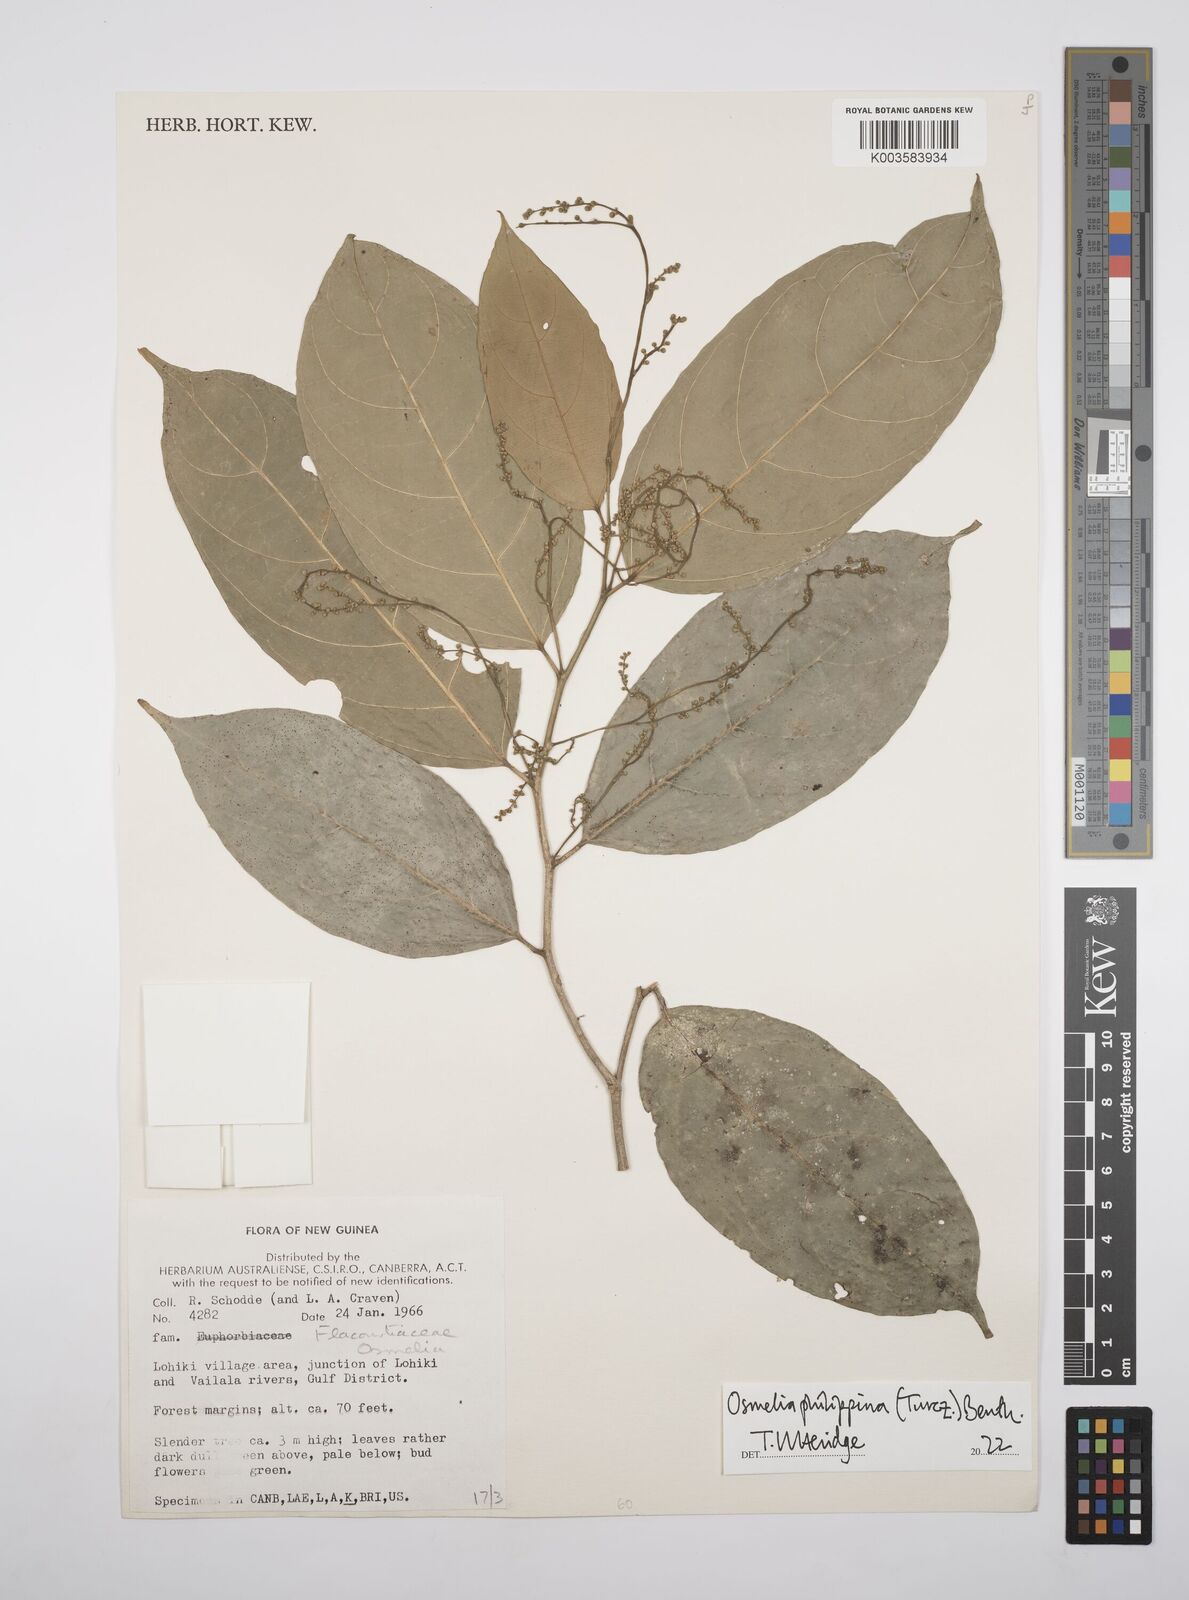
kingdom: Plantae
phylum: Tracheophyta
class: Magnoliopsida
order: Malpighiales
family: Salicaceae
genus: Osmelia
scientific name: Osmelia philippina
